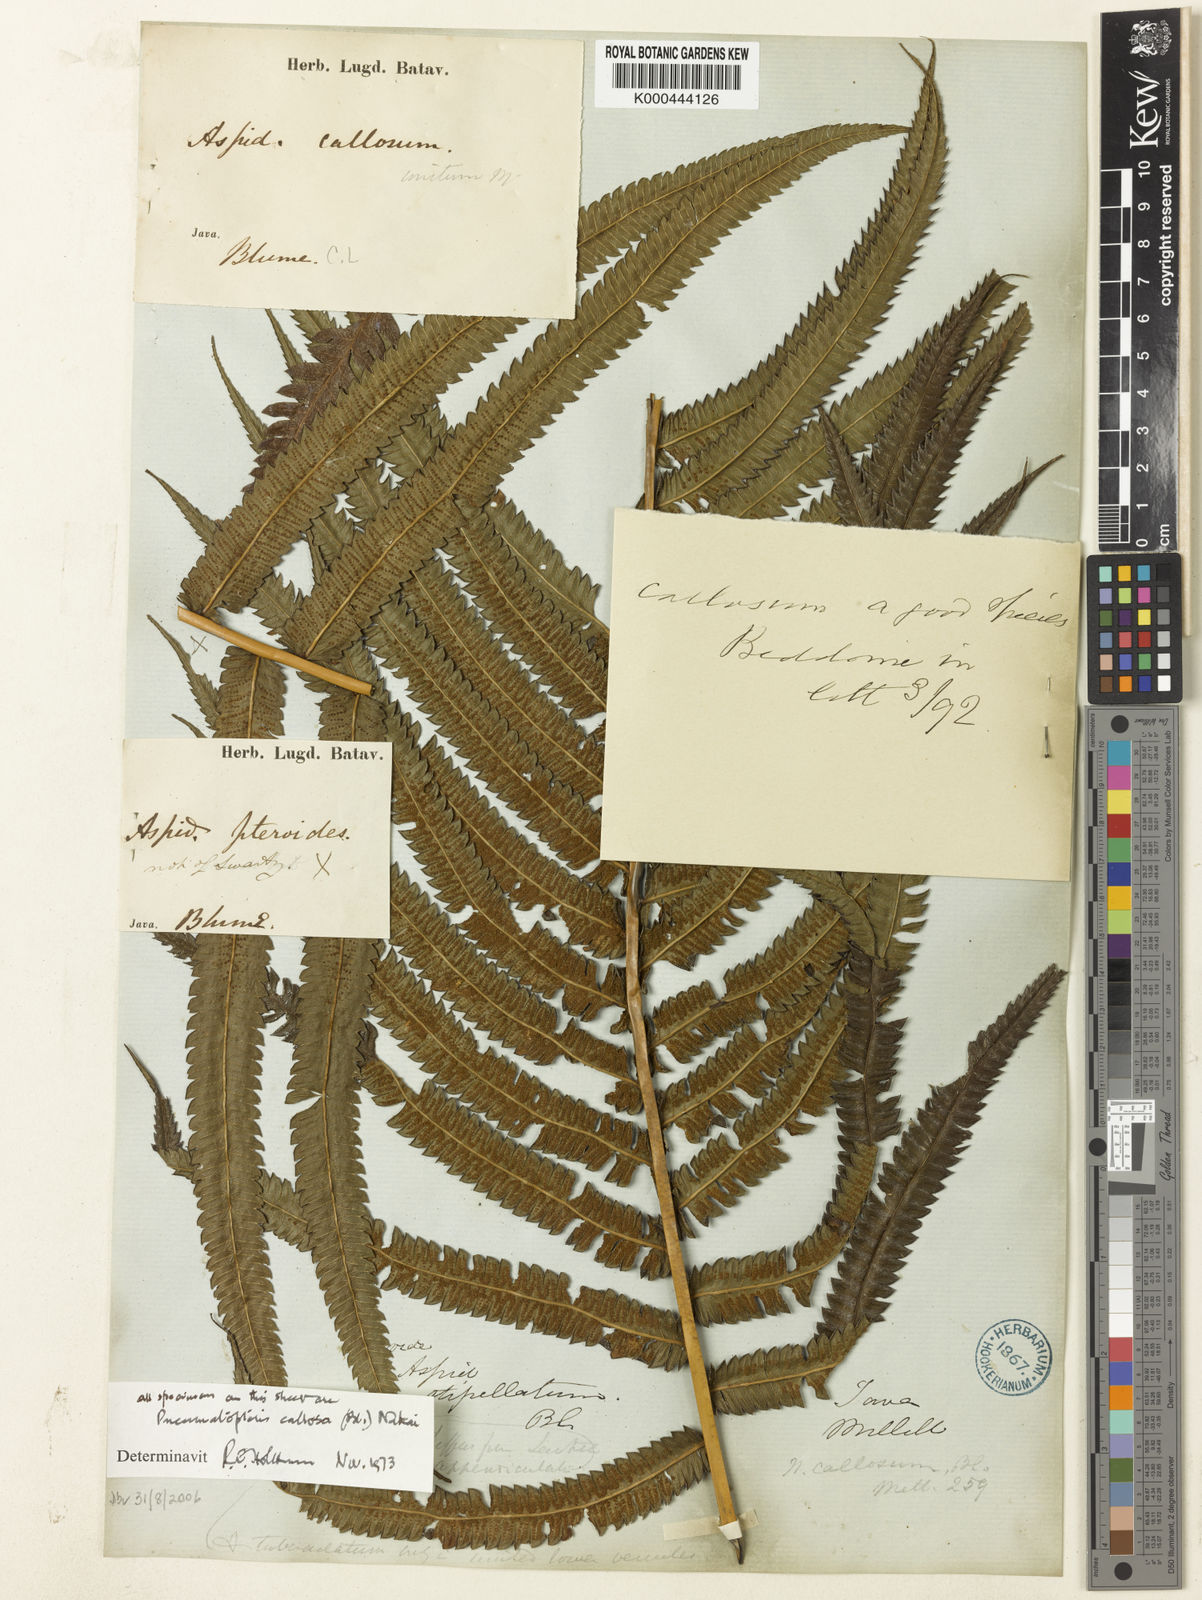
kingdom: Plantae
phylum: Tracheophyta
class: Polypodiopsida
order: Polypodiales
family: Thelypteridaceae
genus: Pneumatopteris
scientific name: Pneumatopteris callosa
